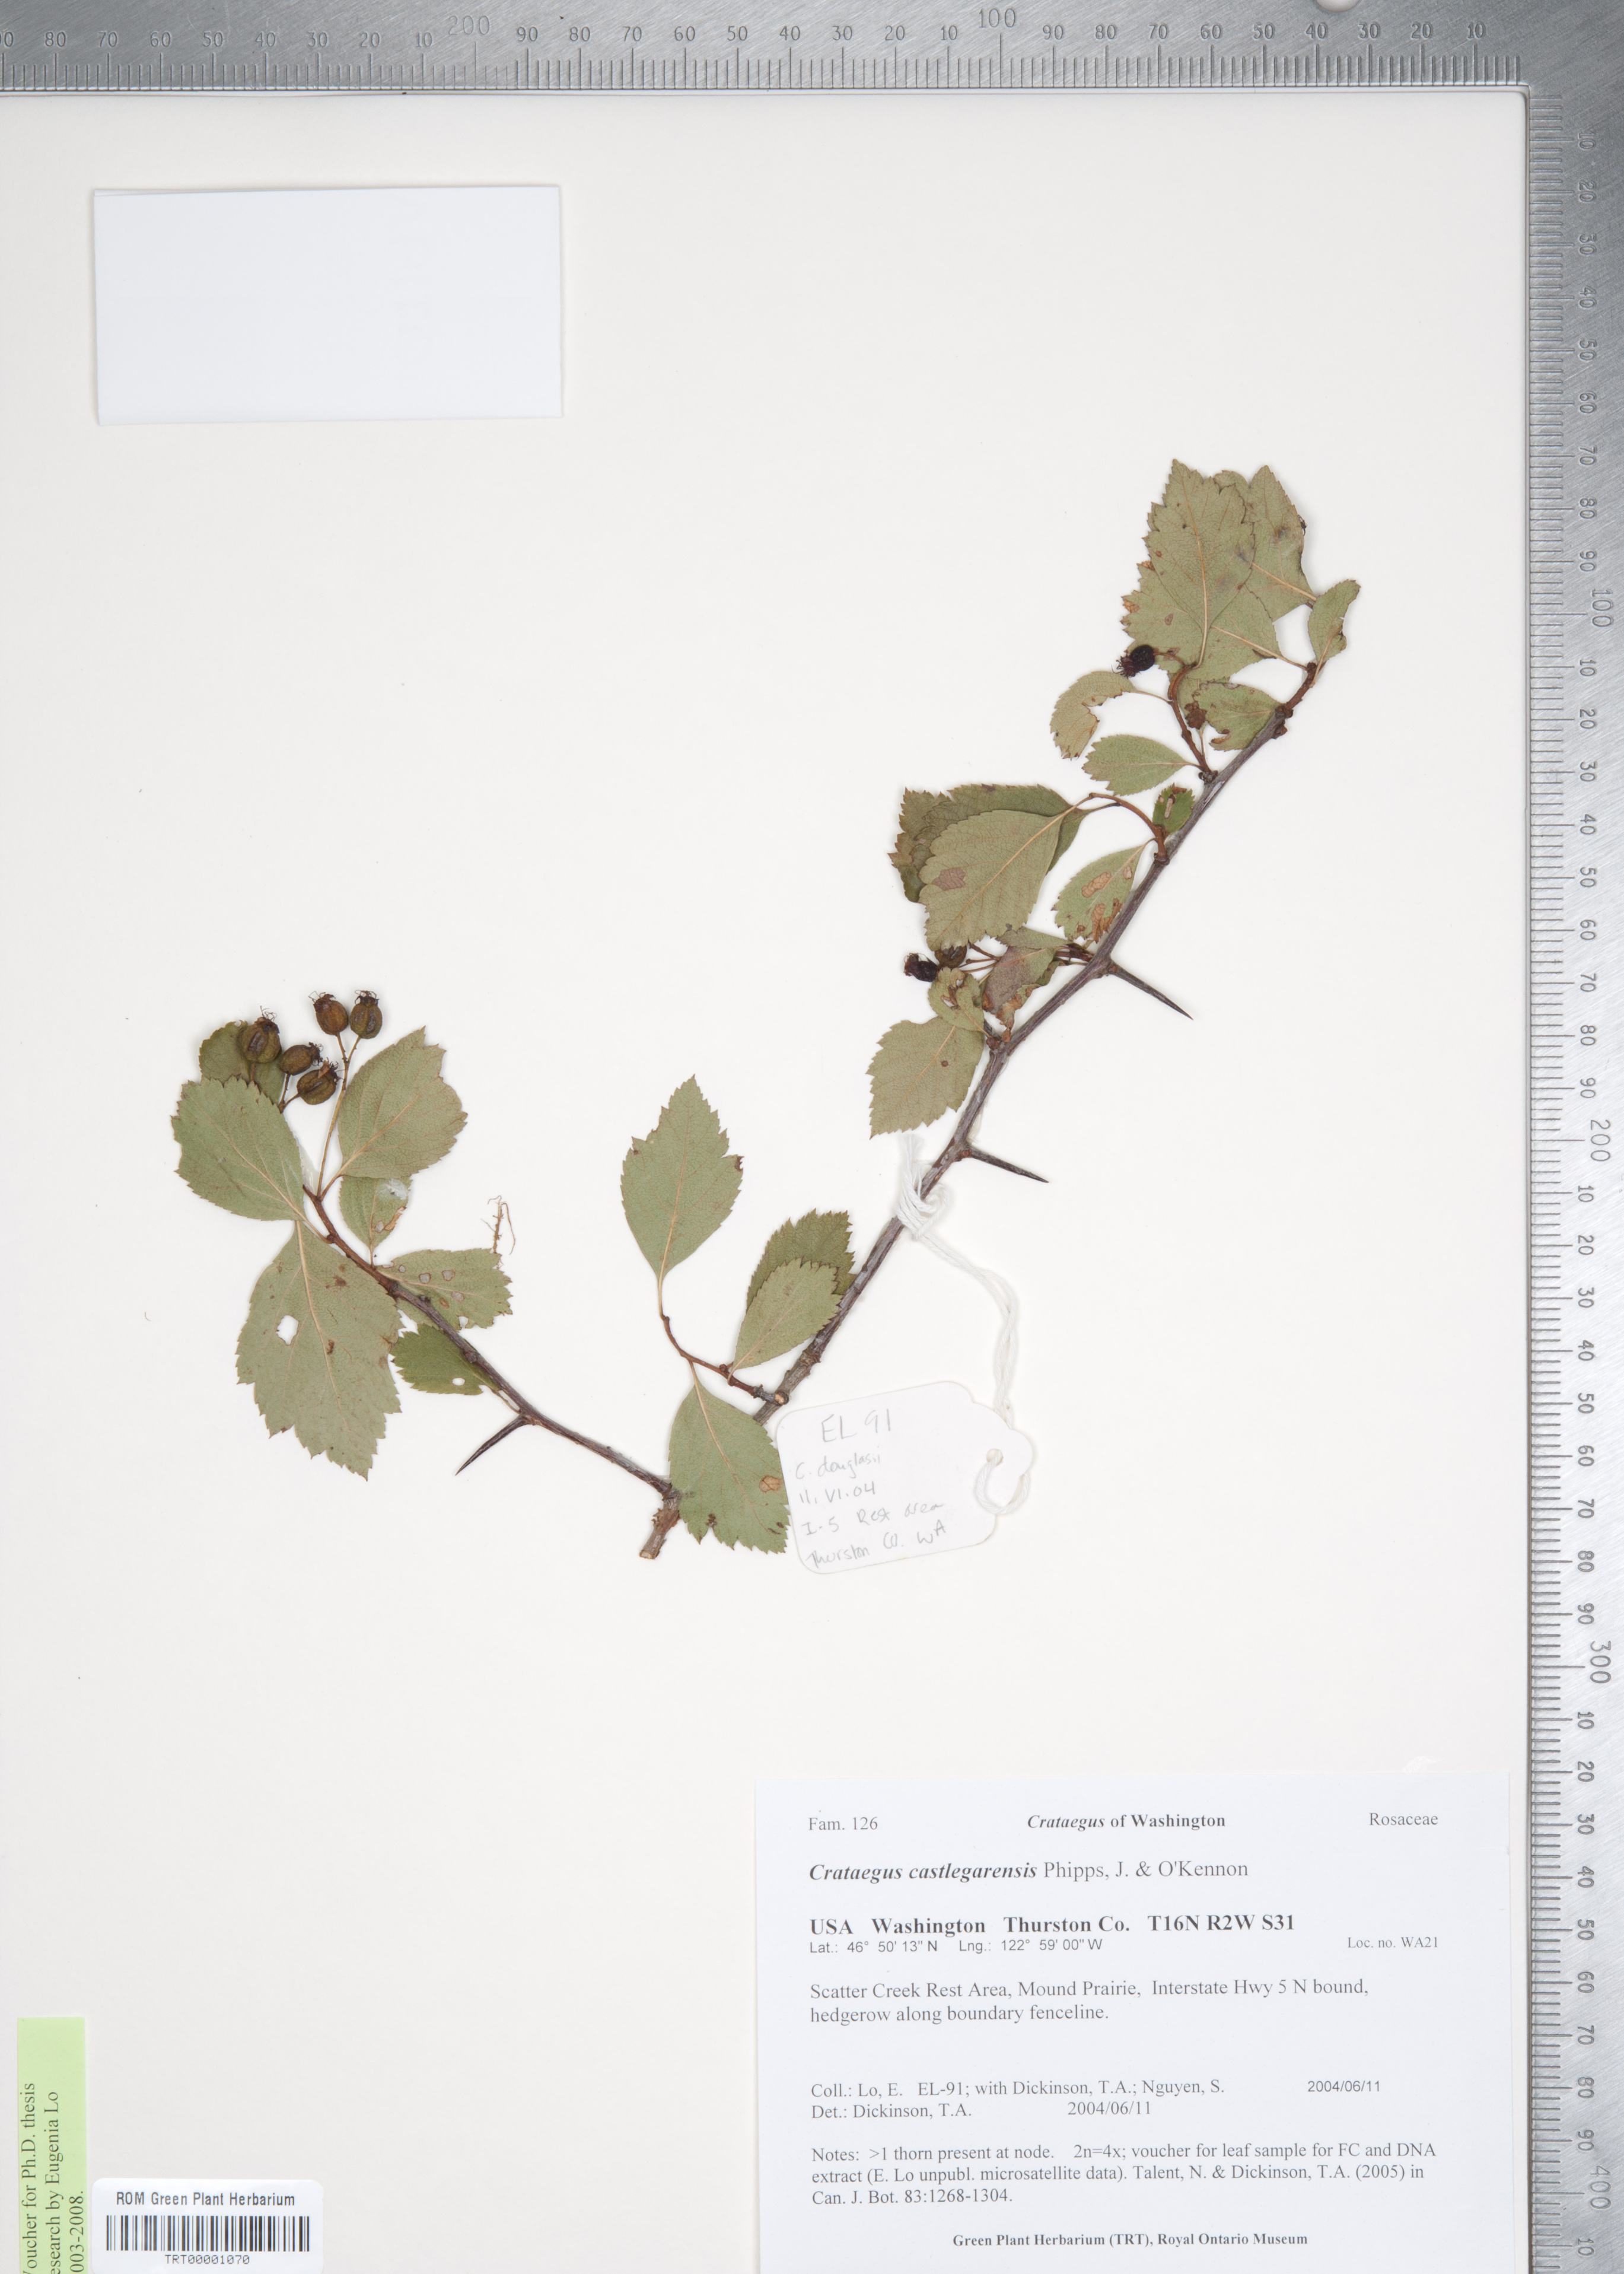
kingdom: Plantae
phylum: Tracheophyta
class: Magnoliopsida
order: Rosales
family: Rosaceae
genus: Crataegus
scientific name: Crataegus castlegarensis
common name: Castlegar hawthorn
